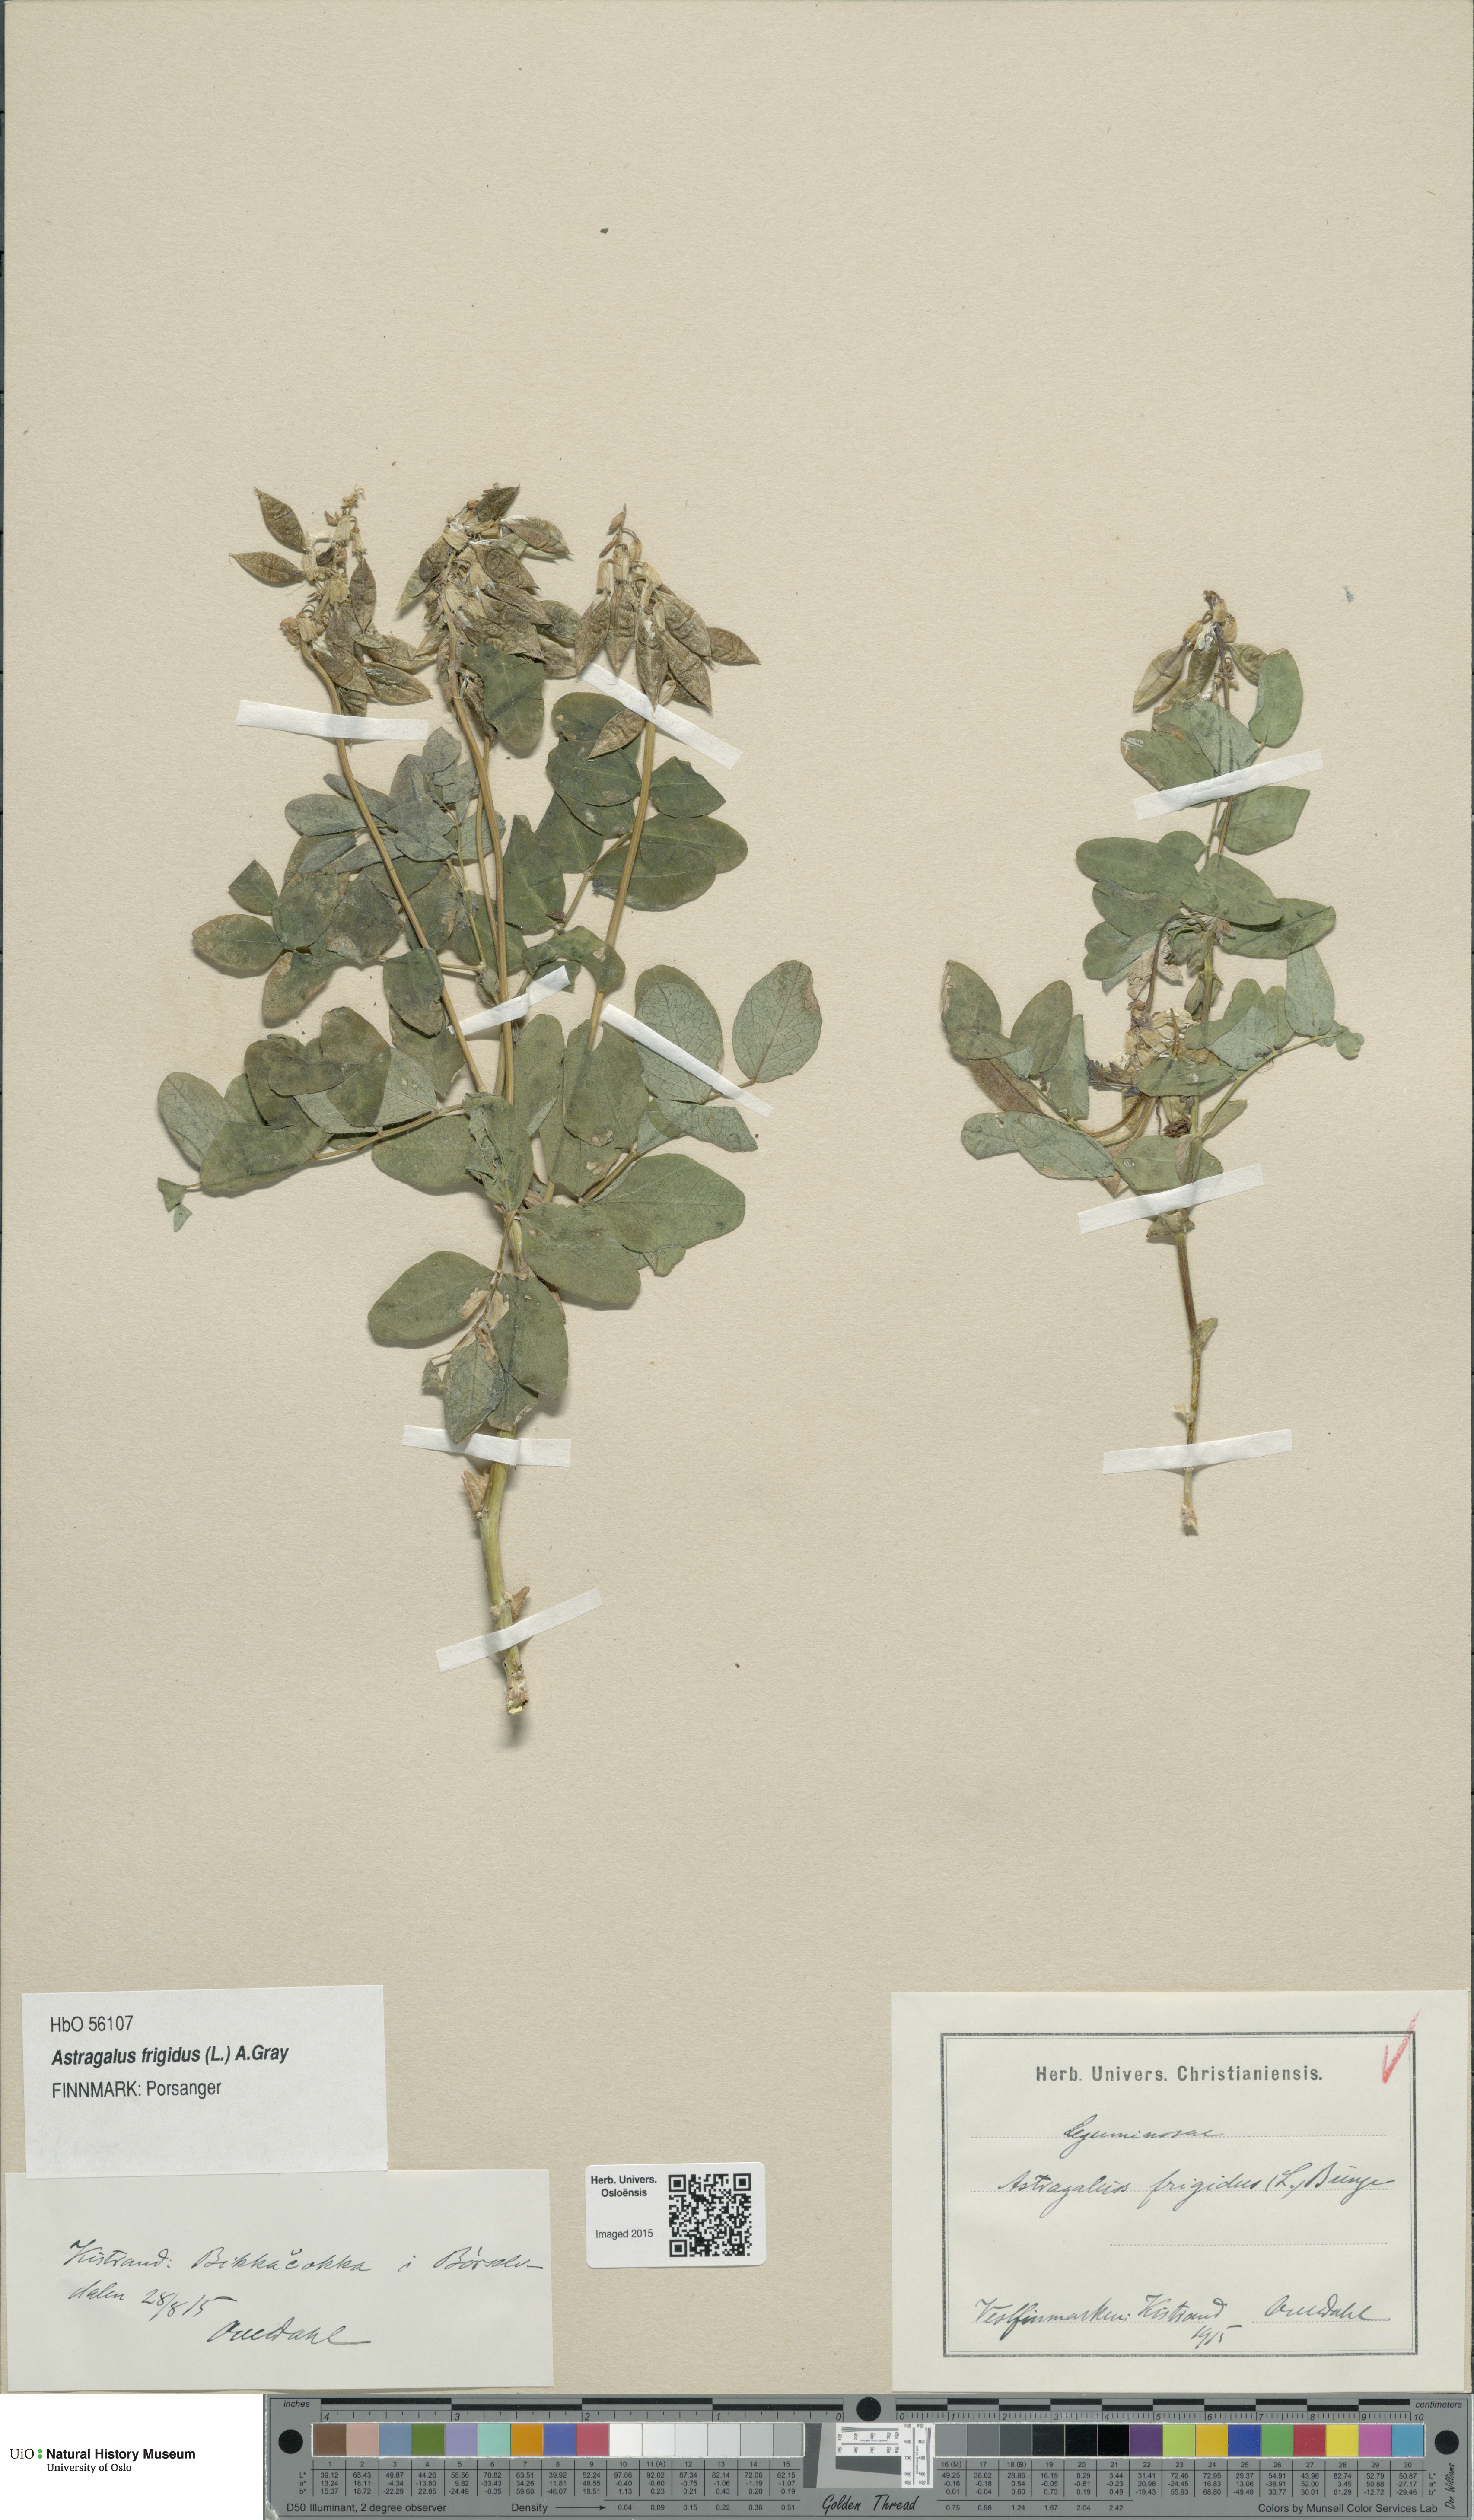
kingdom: Plantae
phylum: Tracheophyta
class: Magnoliopsida
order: Fabales
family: Fabaceae
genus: Astragalus
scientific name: Astragalus frigidus
